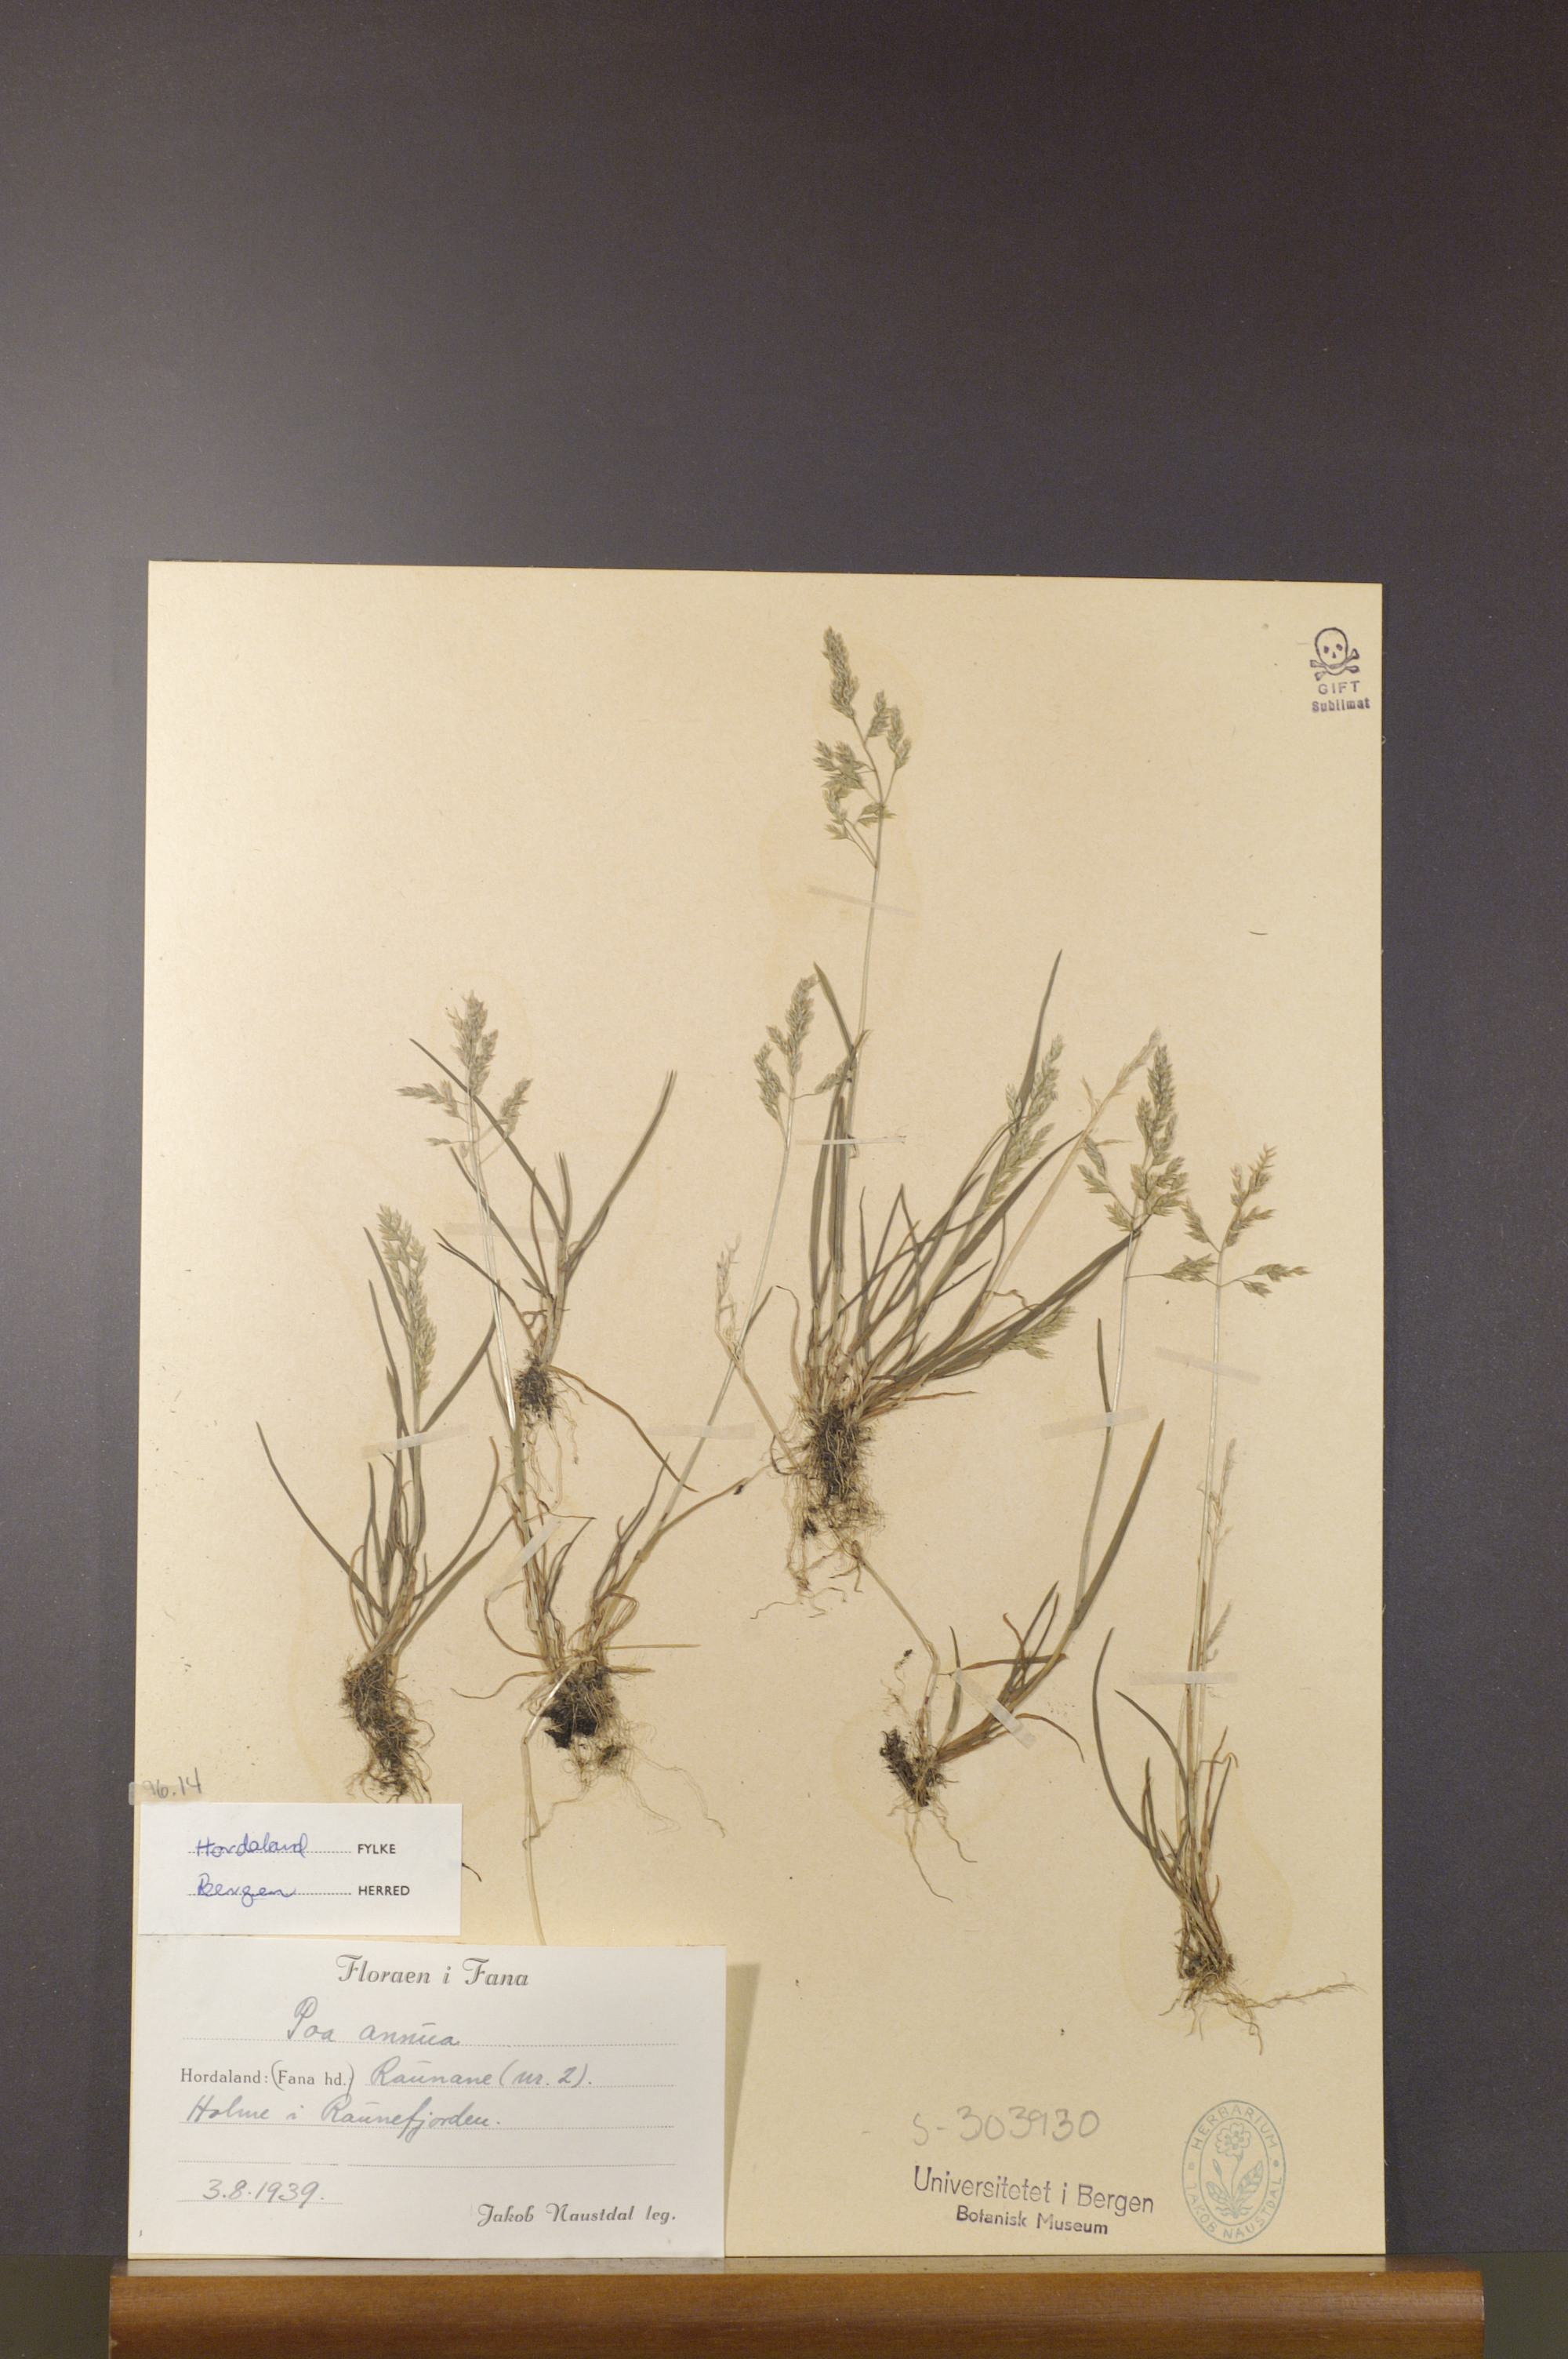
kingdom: Plantae
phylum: Tracheophyta
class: Liliopsida
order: Poales
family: Poaceae
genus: Poa
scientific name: Poa annua
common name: Annual bluegrass
